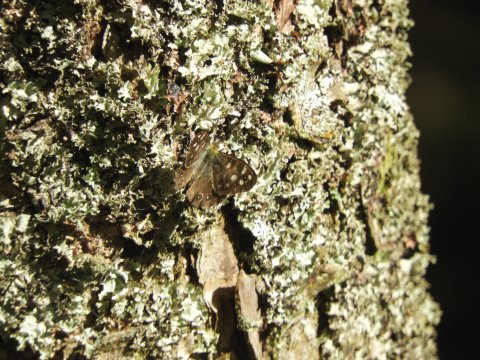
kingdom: Animalia
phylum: Arthropoda
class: Insecta
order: Lepidoptera
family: Nymphalidae
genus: Pararge
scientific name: Pararge aegeria
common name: Speckled Wood Butterfly
